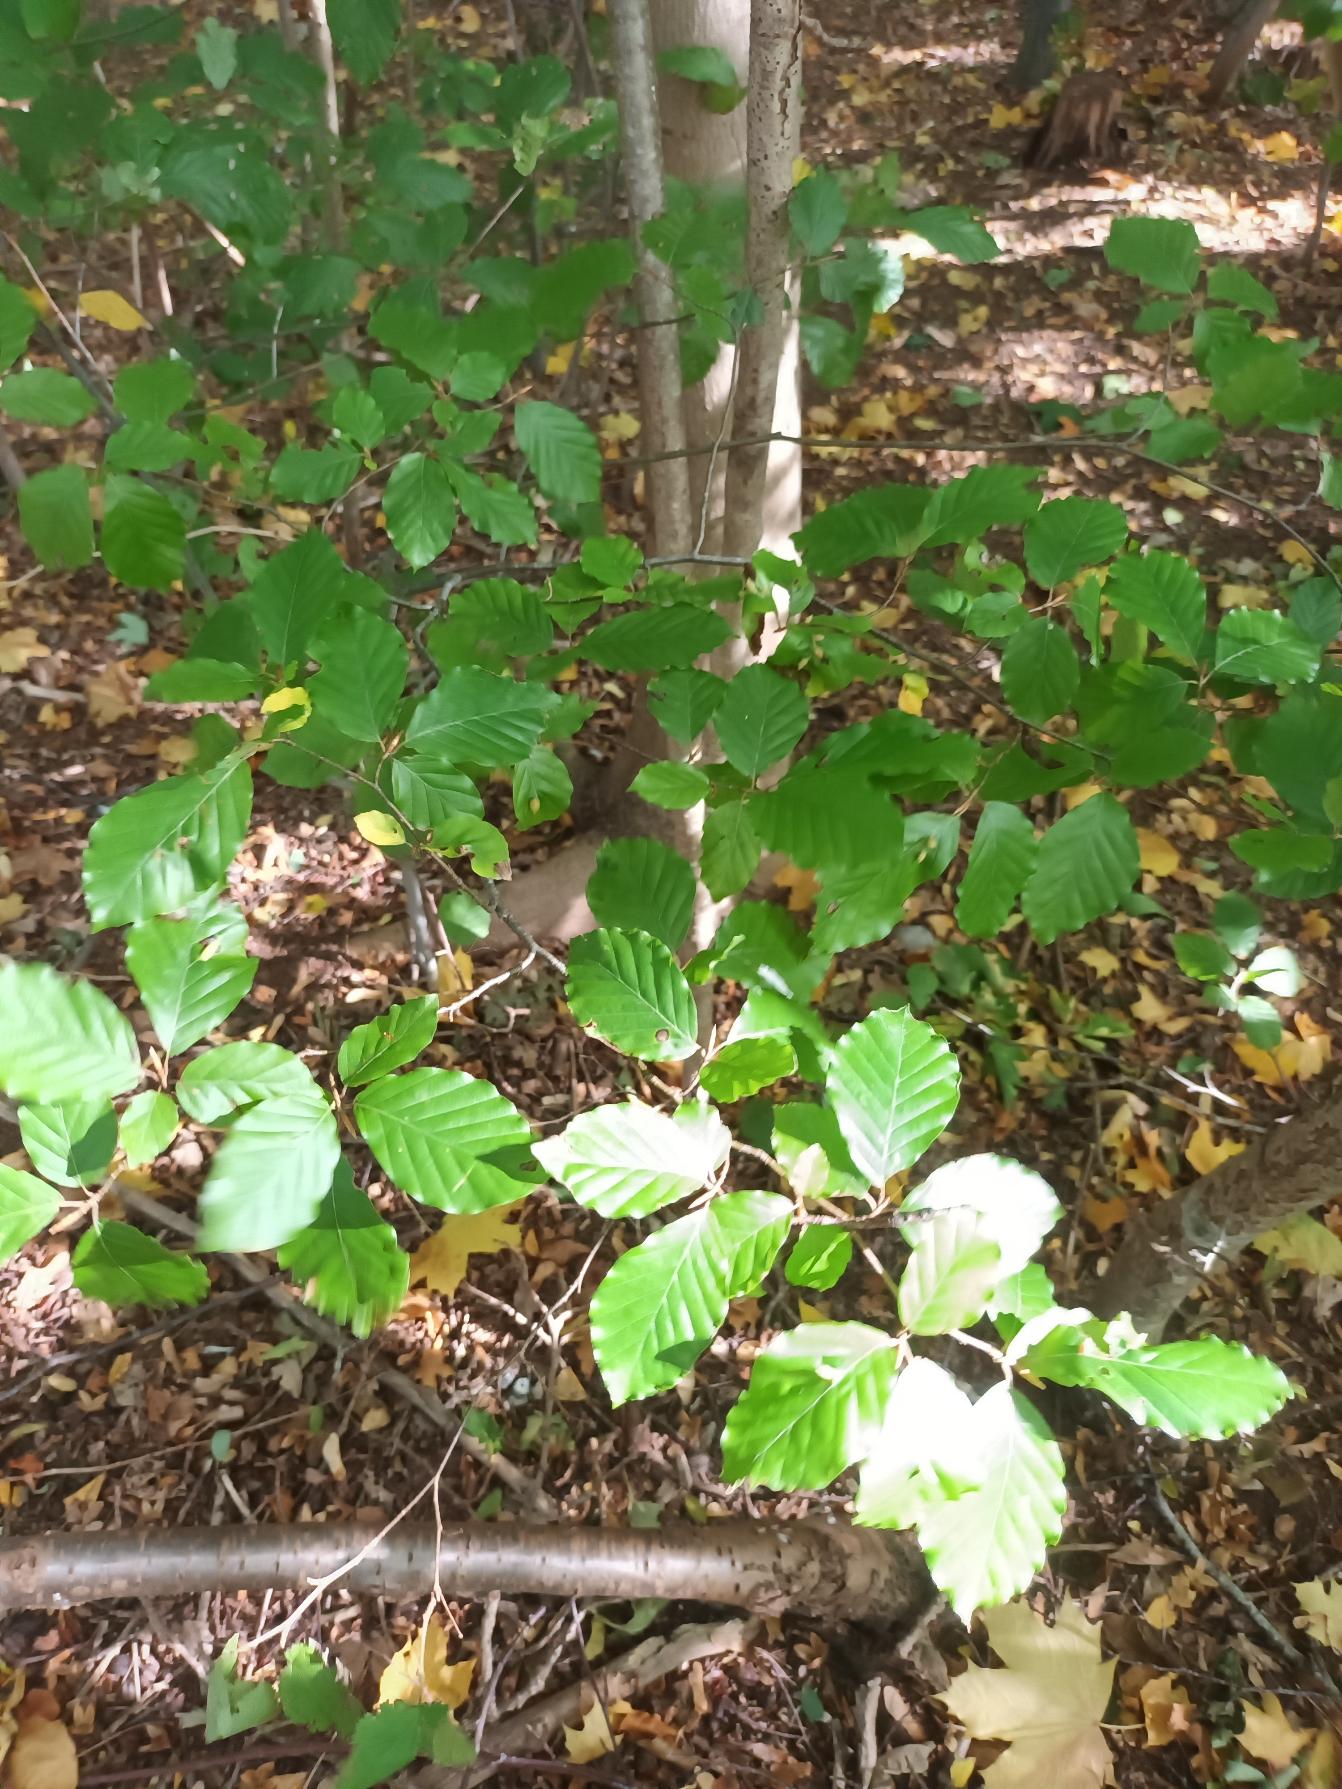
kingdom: Plantae
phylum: Tracheophyta
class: Magnoliopsida
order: Fagales
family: Fagaceae
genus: Fagus
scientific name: Fagus sylvatica
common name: Bøg
